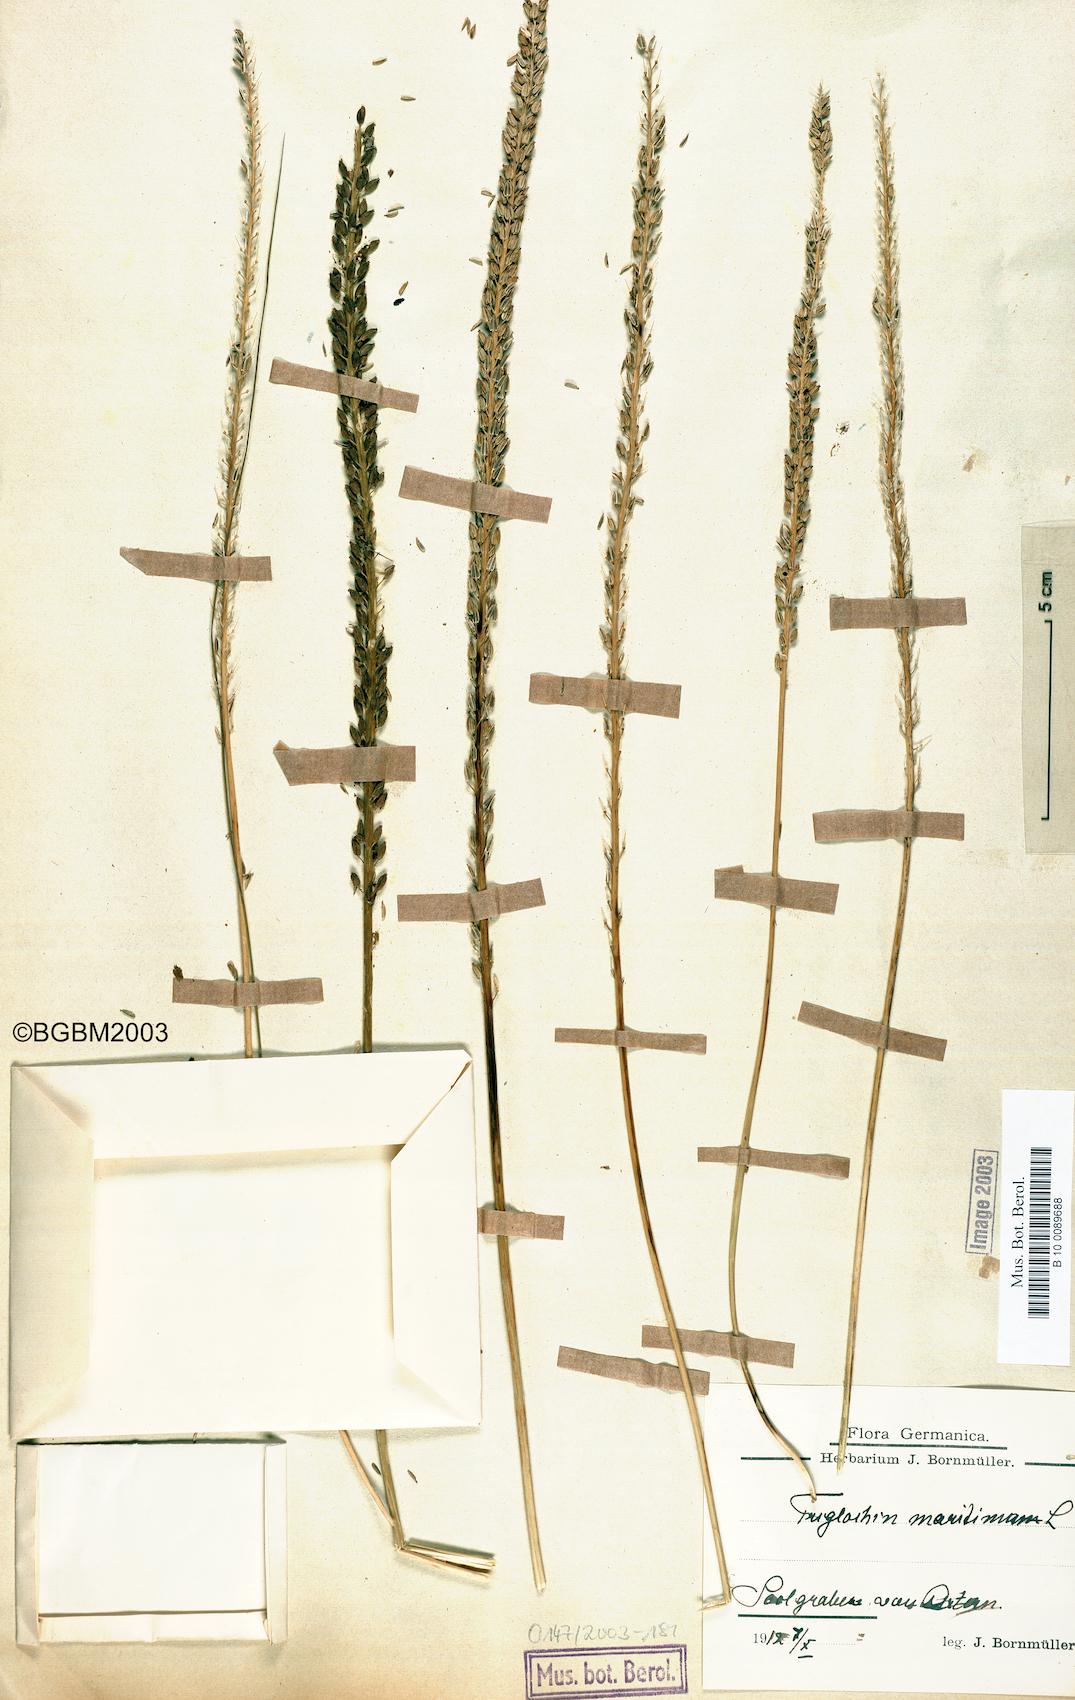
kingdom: Plantae
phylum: Tracheophyta
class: Liliopsida
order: Alismatales
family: Juncaginaceae
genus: Triglochin
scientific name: Triglochin maritima
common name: Sea arrowgrass
